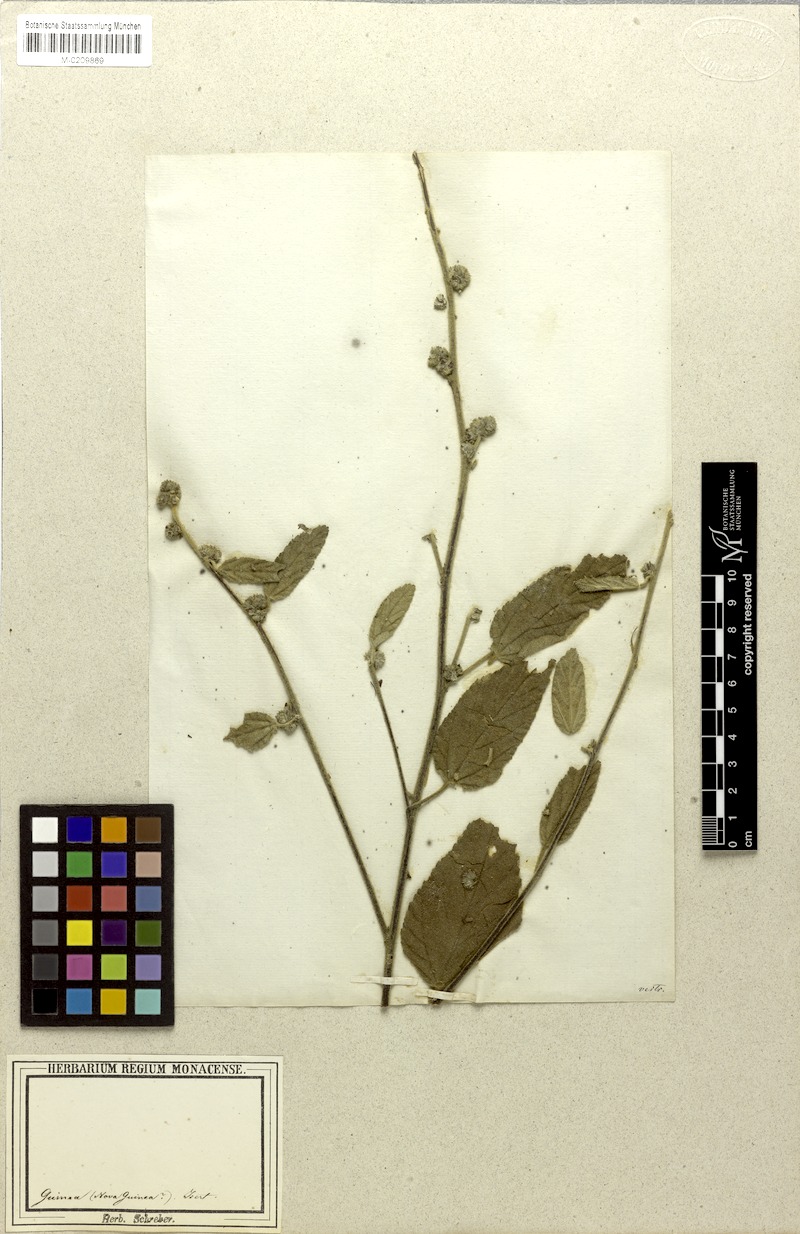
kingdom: Plantae
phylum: Tracheophyta
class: Magnoliopsida
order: Malvales
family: Malvaceae
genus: Waltheria
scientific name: Waltheria indica
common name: Leather-coat
